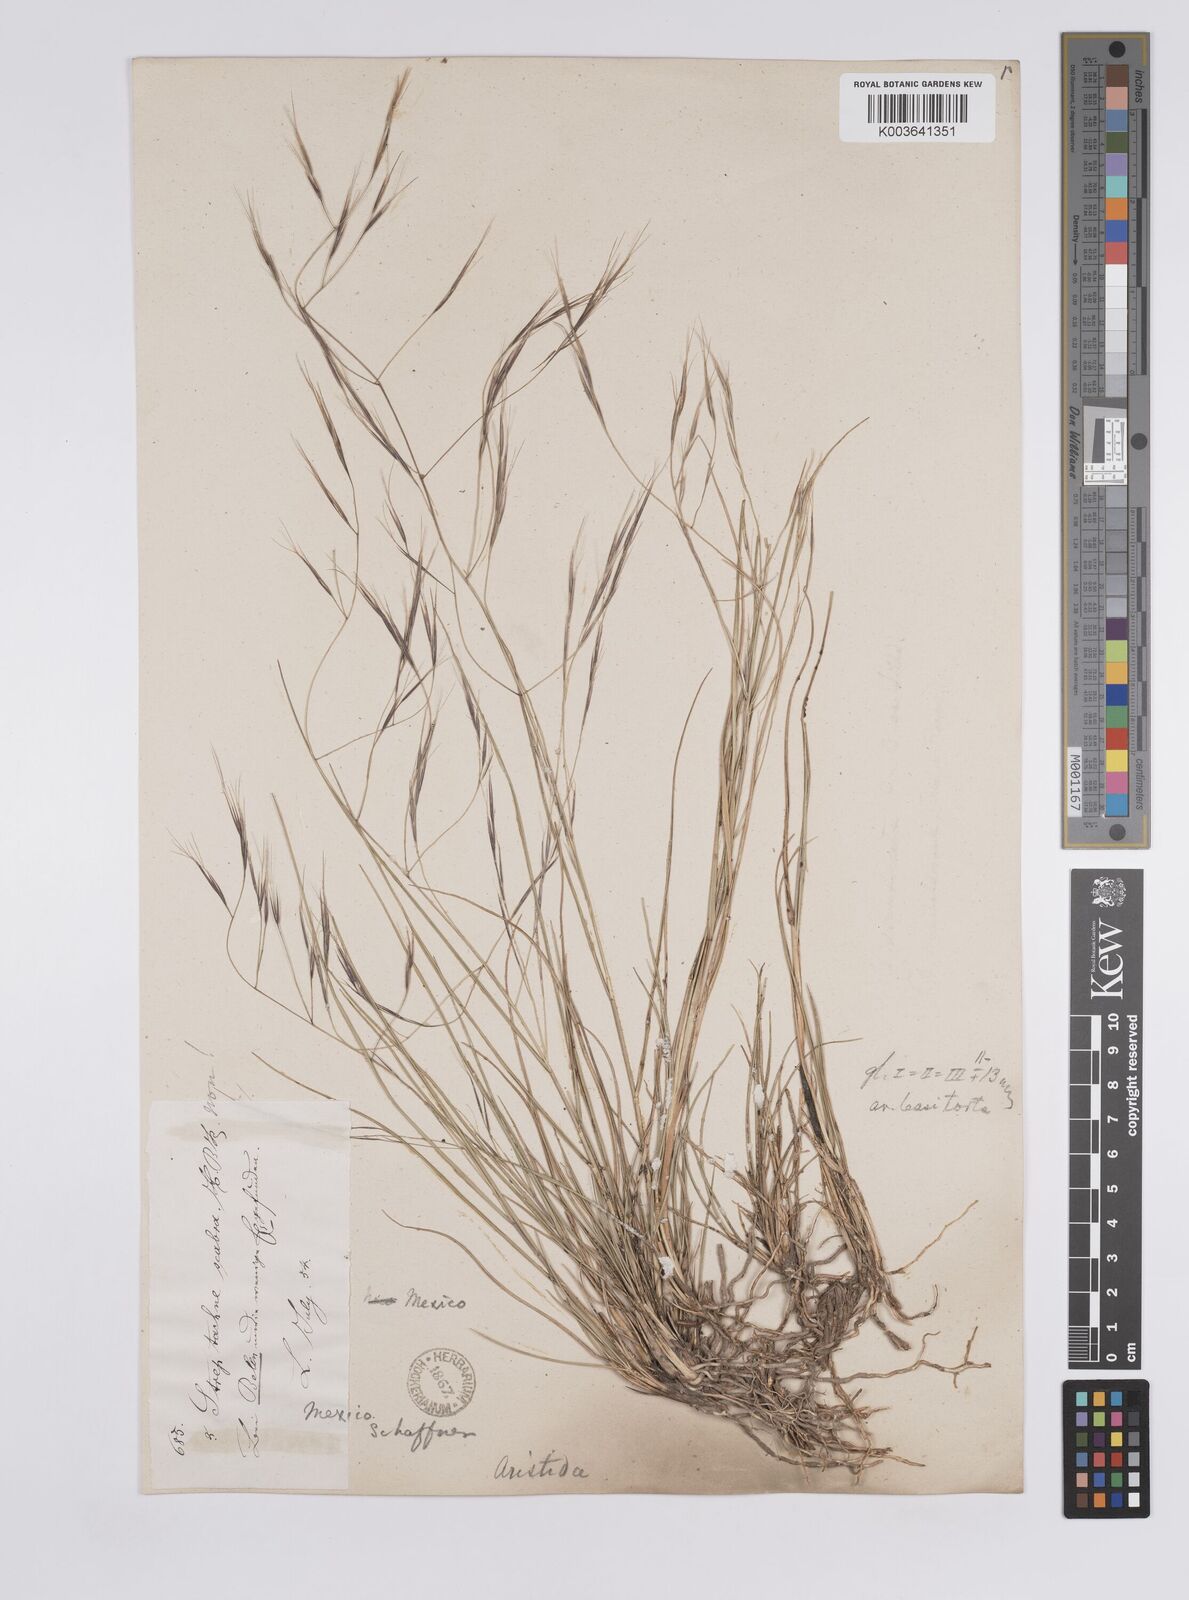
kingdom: Plantae
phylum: Tracheophyta
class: Liliopsida
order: Poales
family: Poaceae
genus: Aristida
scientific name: Aristida divaricata
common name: Poverty grass
